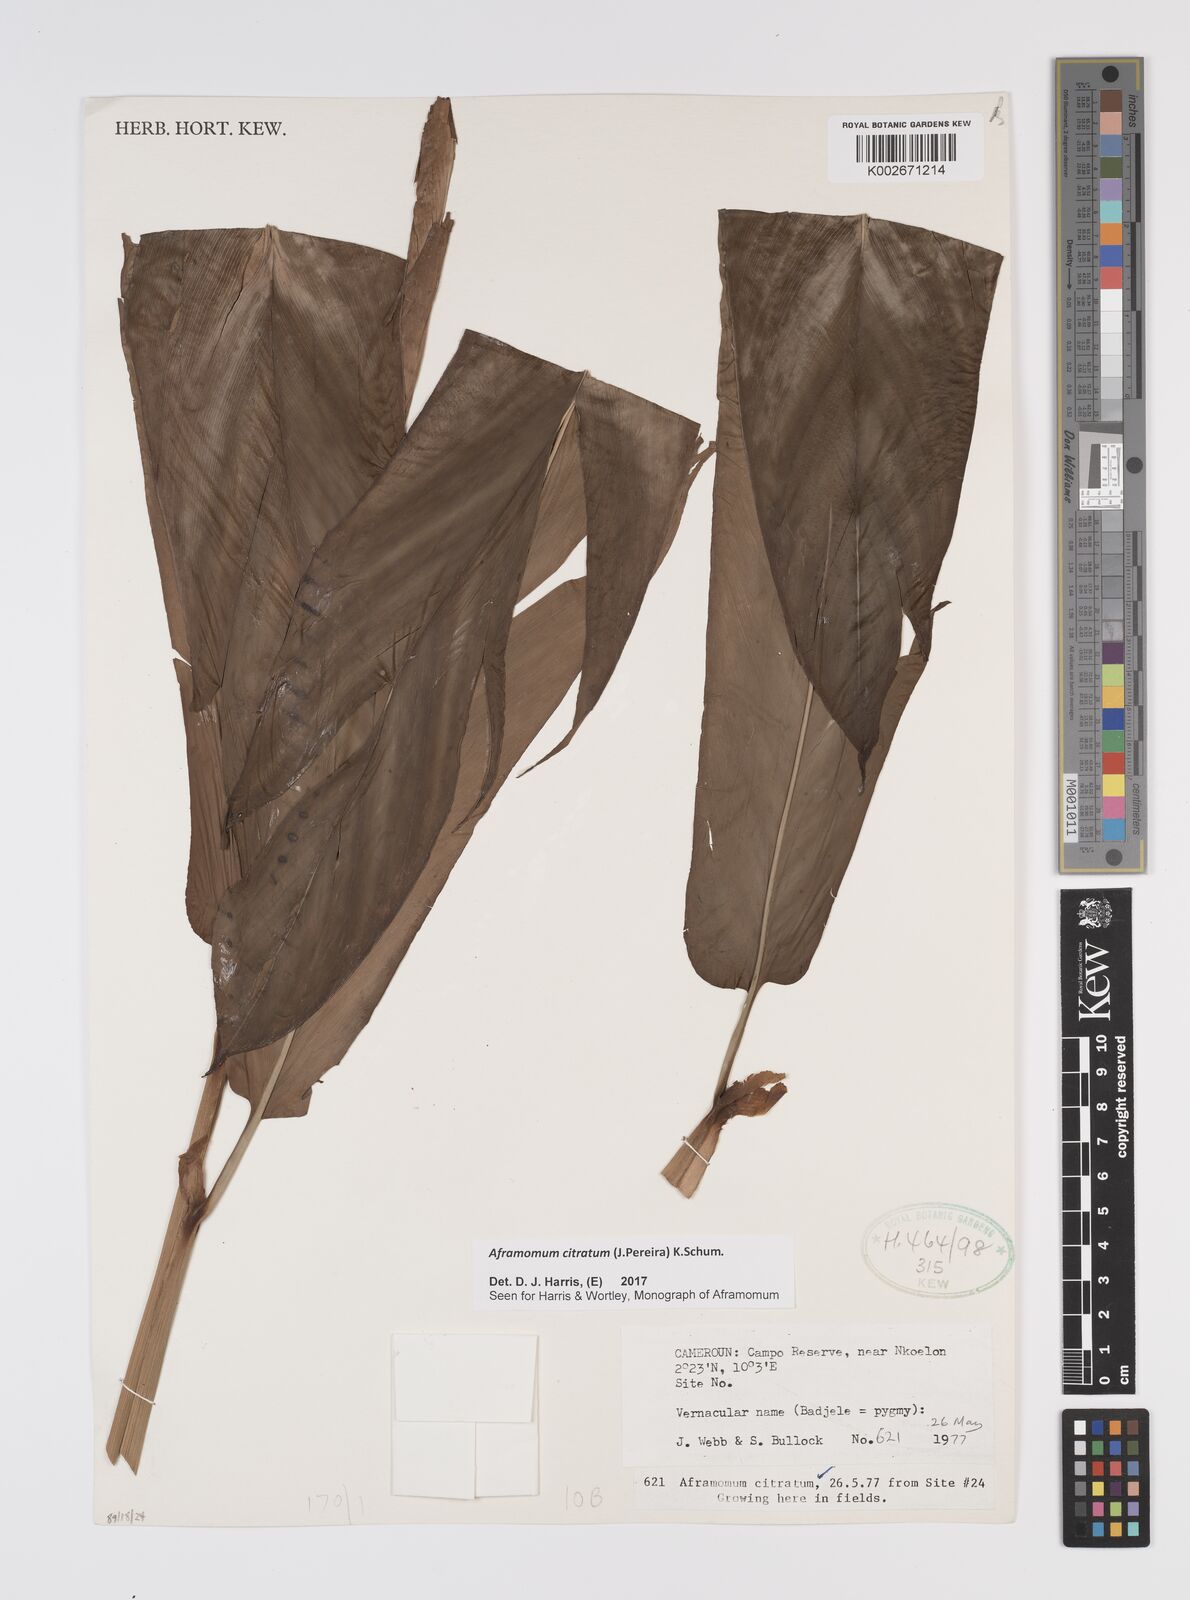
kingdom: Plantae
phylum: Tracheophyta
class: Liliopsida
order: Zingiberales
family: Zingiberaceae
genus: Aframomum
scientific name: Aframomum citratum
